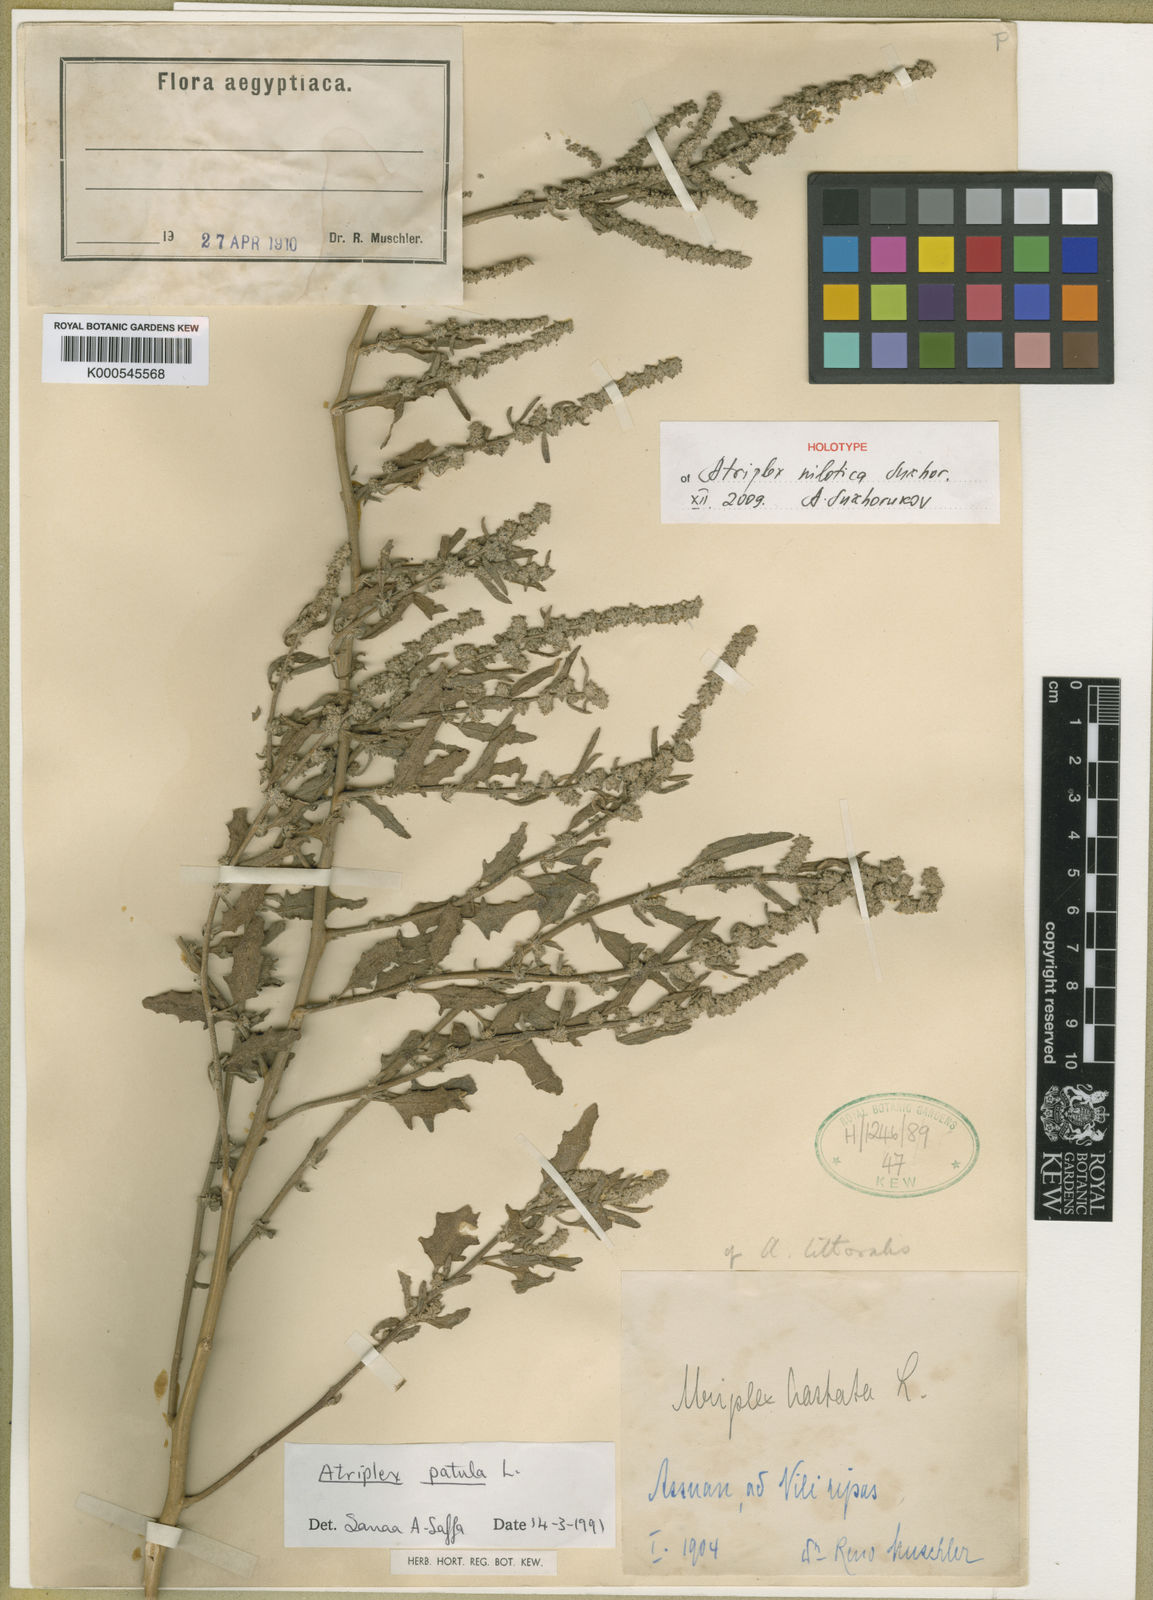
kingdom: Plantae
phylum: Tracheophyta
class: Magnoliopsida
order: Caryophyllales
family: Amaranthaceae
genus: Atriplex
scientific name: Atriplex nilotica
